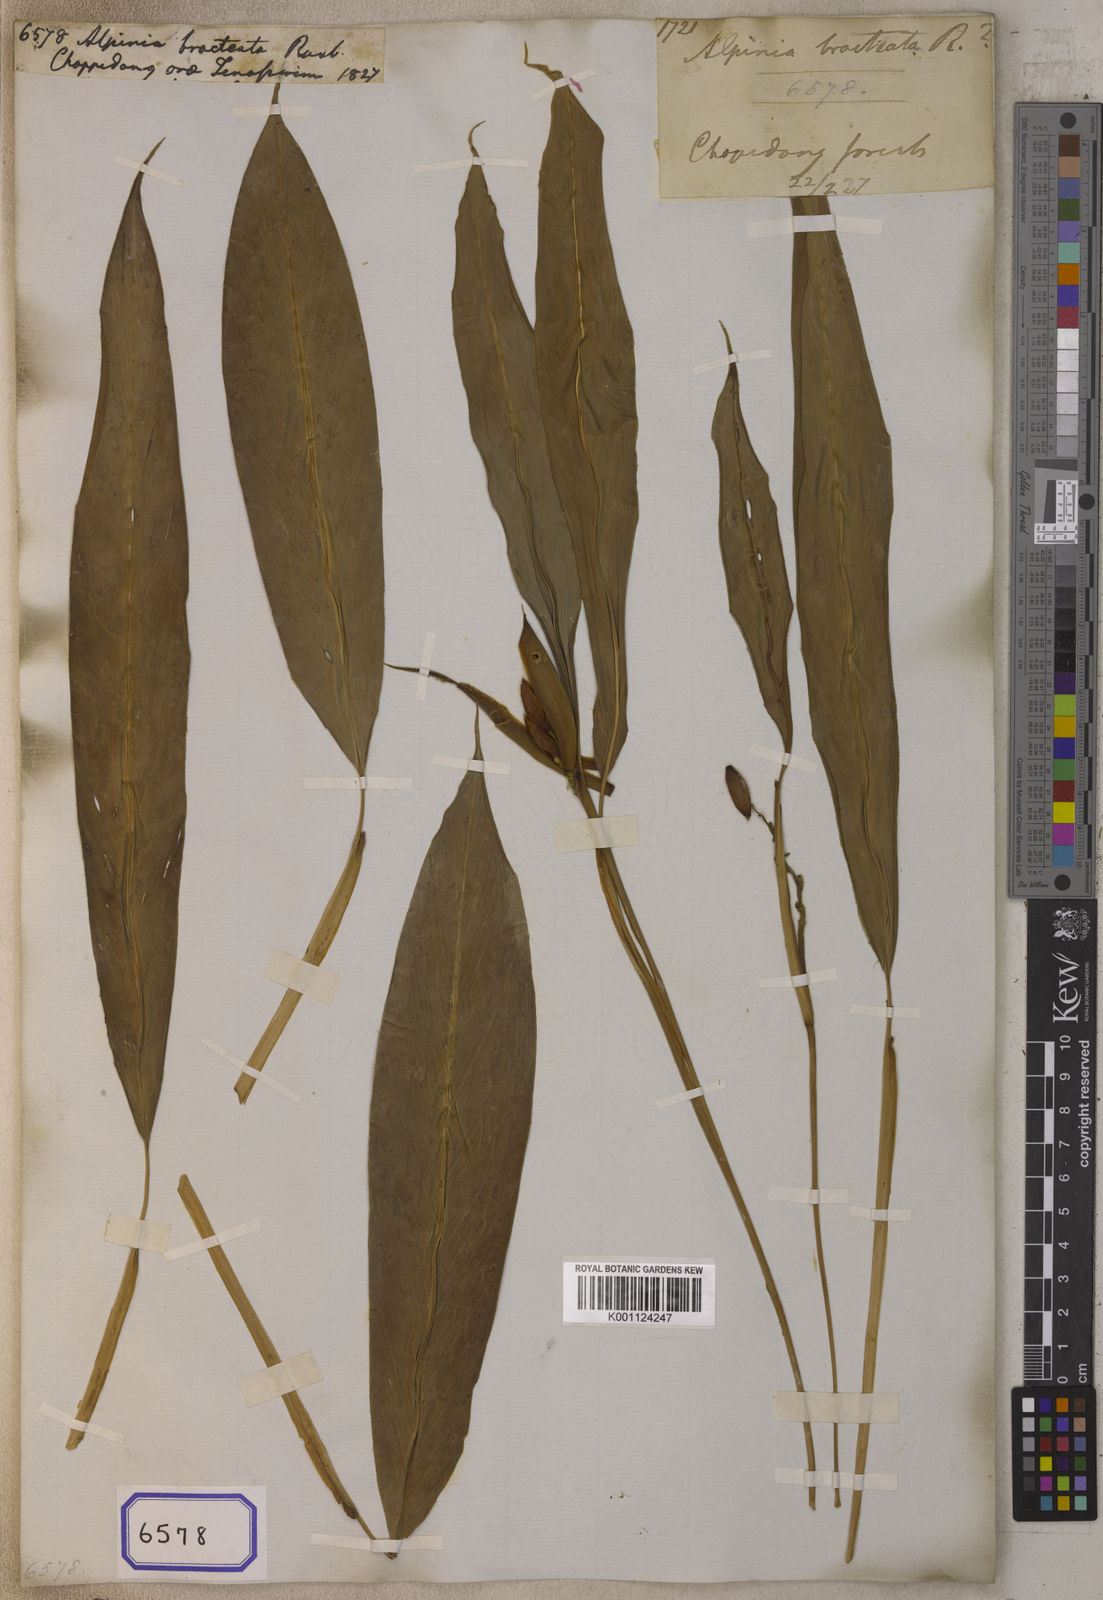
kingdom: Plantae
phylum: Tracheophyta
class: Liliopsida
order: Zingiberales
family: Zingiberaceae
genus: Alpinia
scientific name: Alpinia roxburghii
